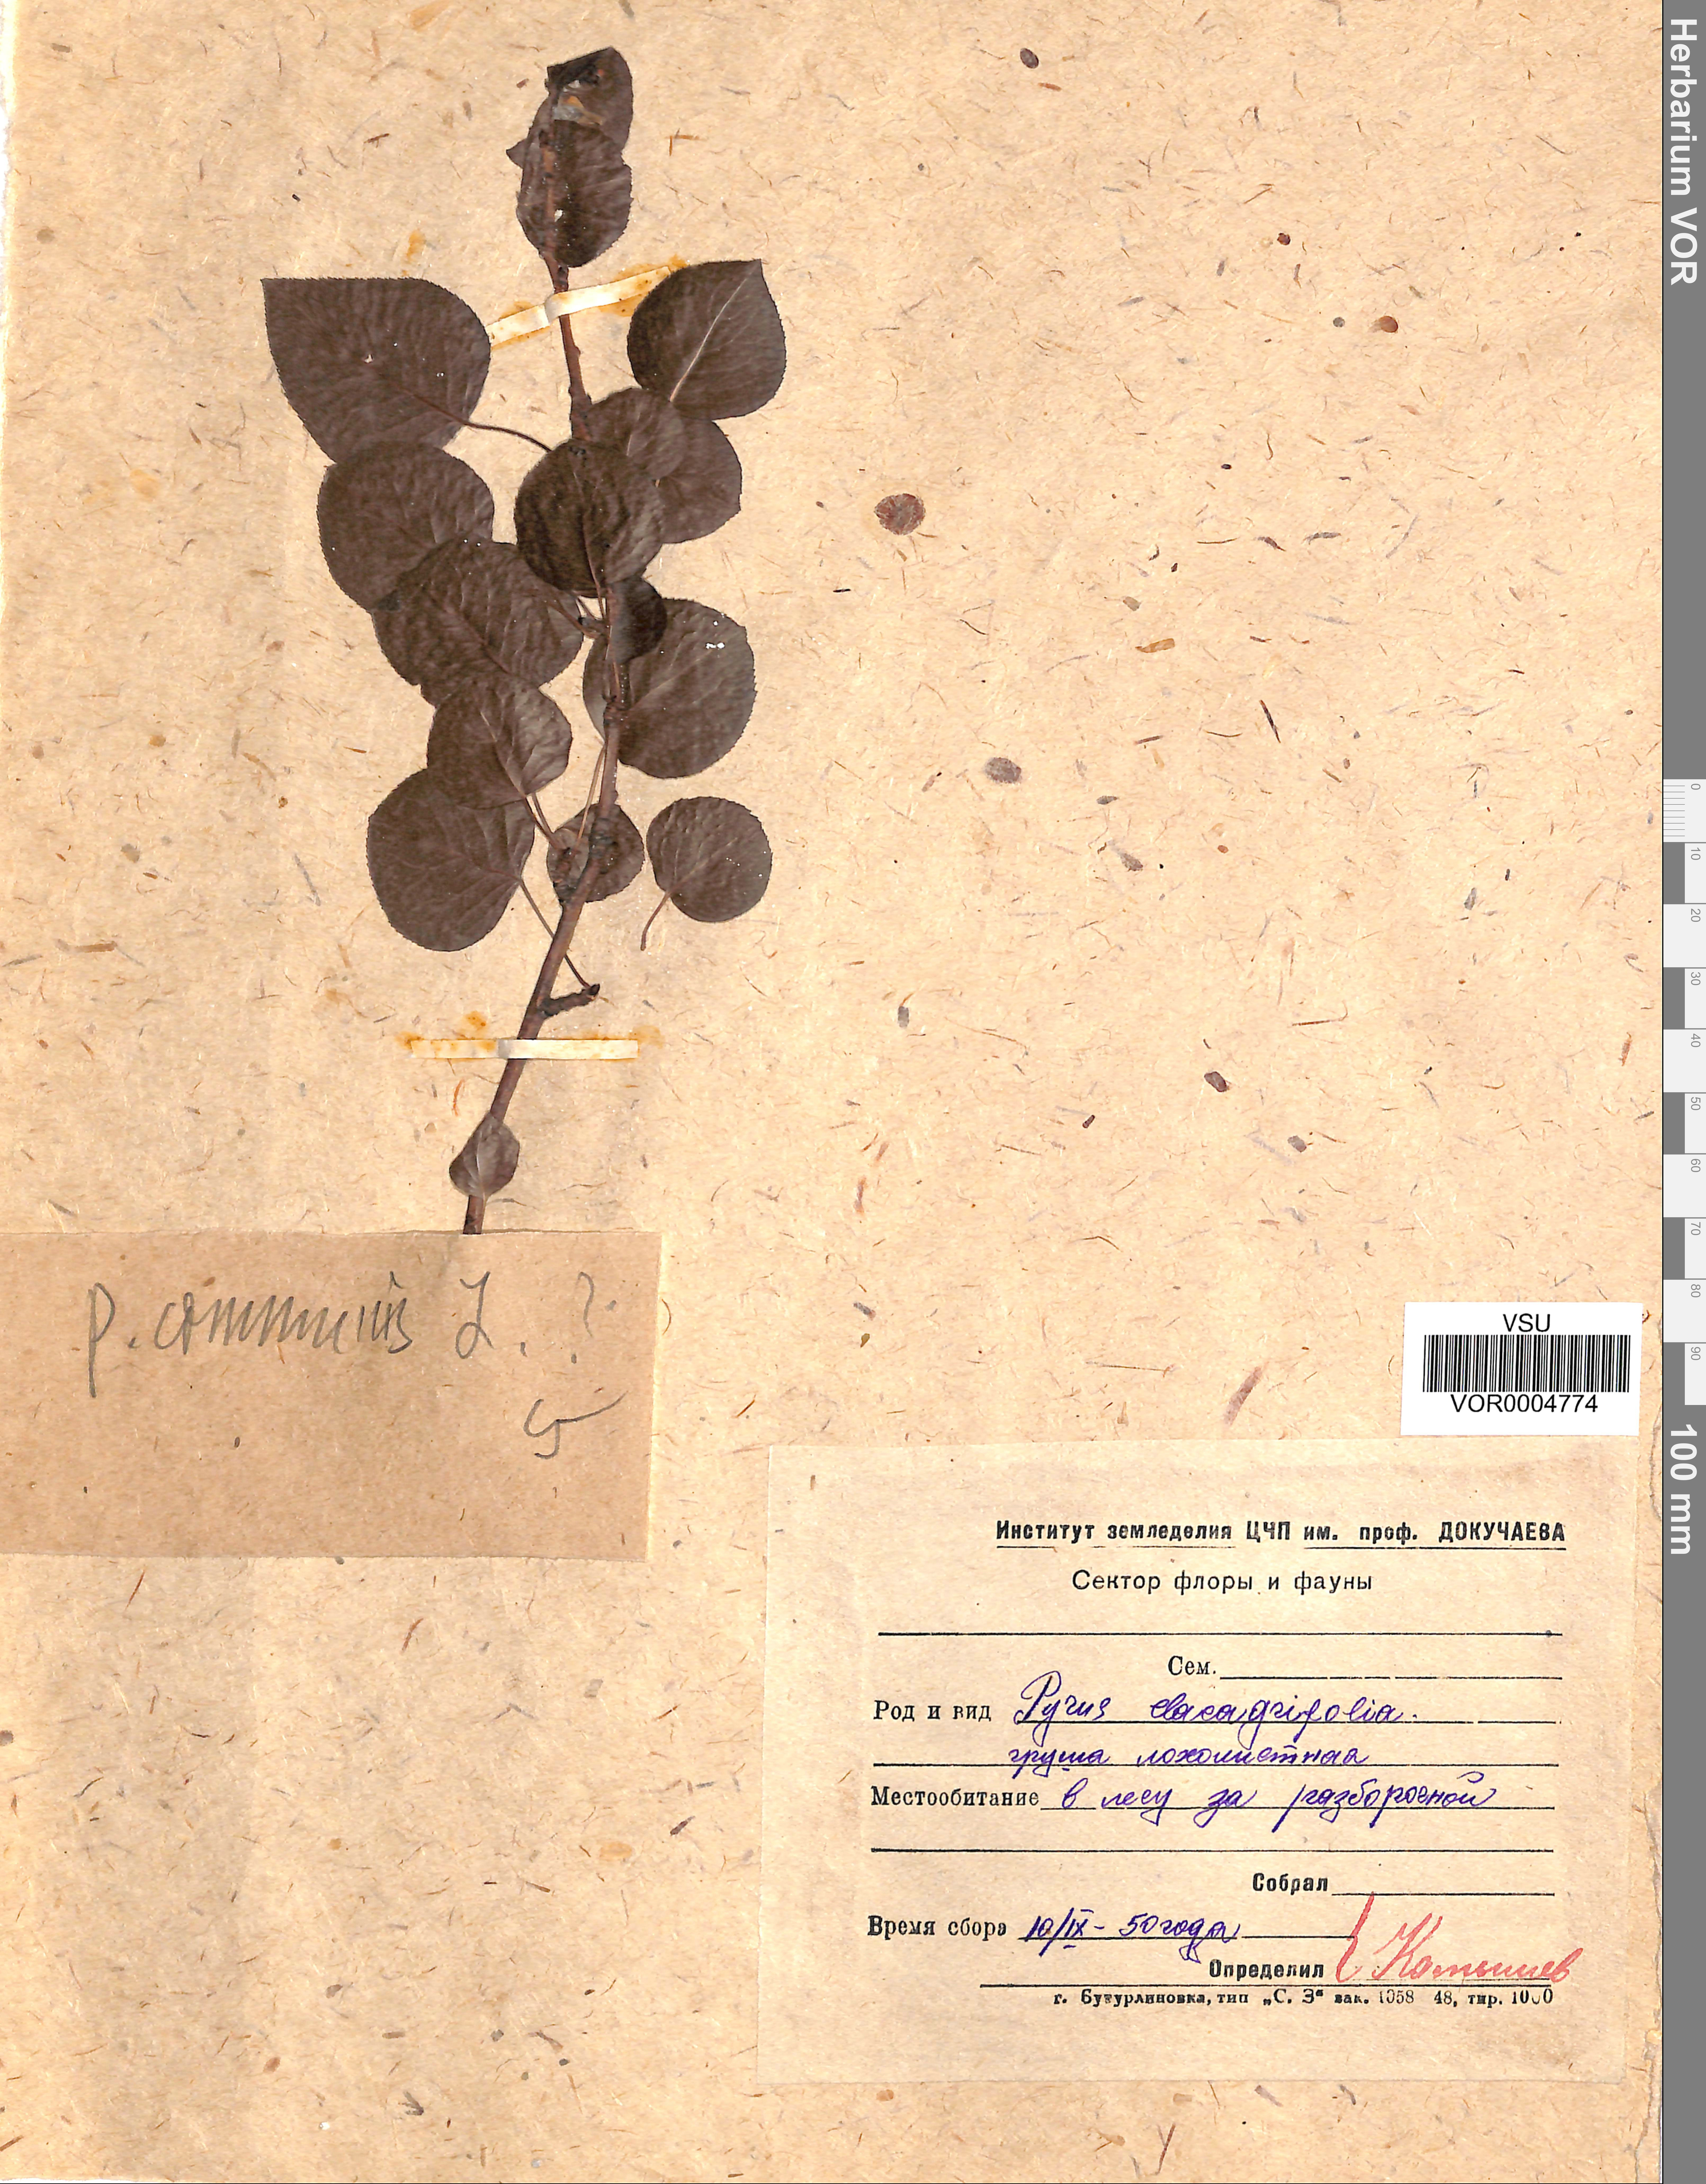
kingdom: Plantae
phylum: Tracheophyta
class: Magnoliopsida
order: Rosales
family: Rosaceae
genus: Pyrus
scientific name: Pyrus communis
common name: Pear
